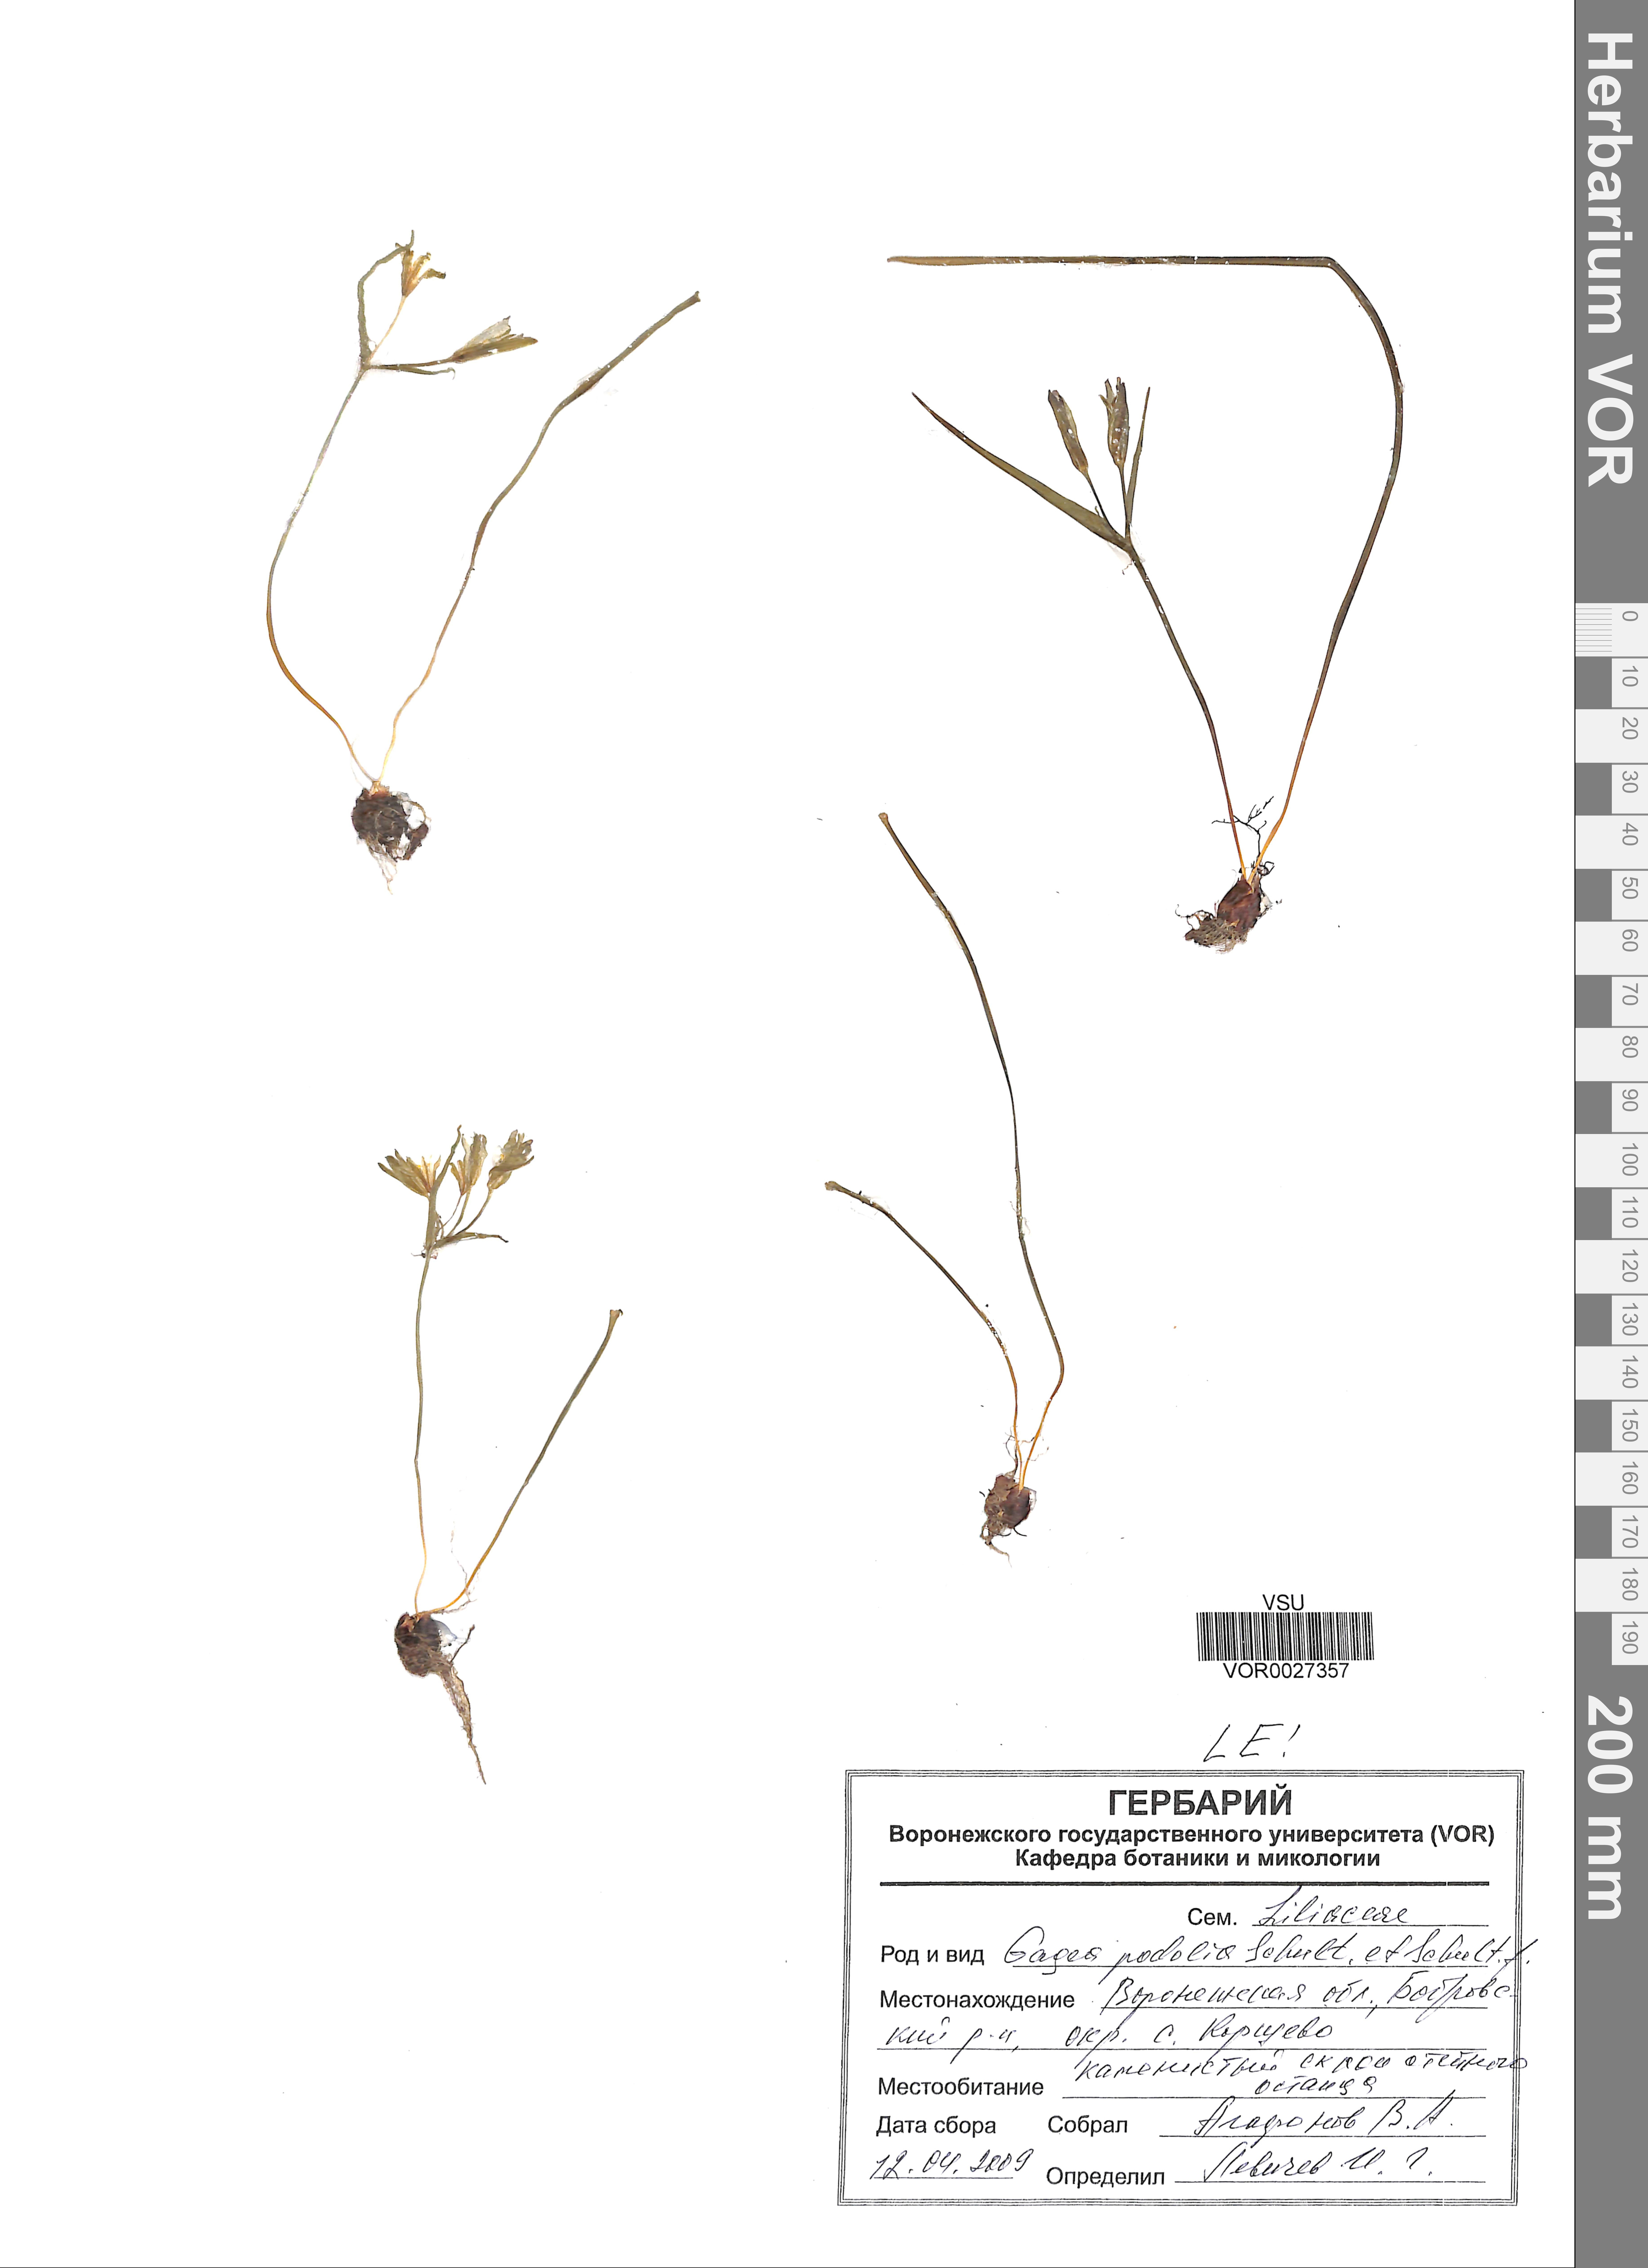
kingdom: Plantae
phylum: Tracheophyta
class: Liliopsida
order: Liliales
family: Liliaceae
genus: Gagea
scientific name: Gagea podolica
